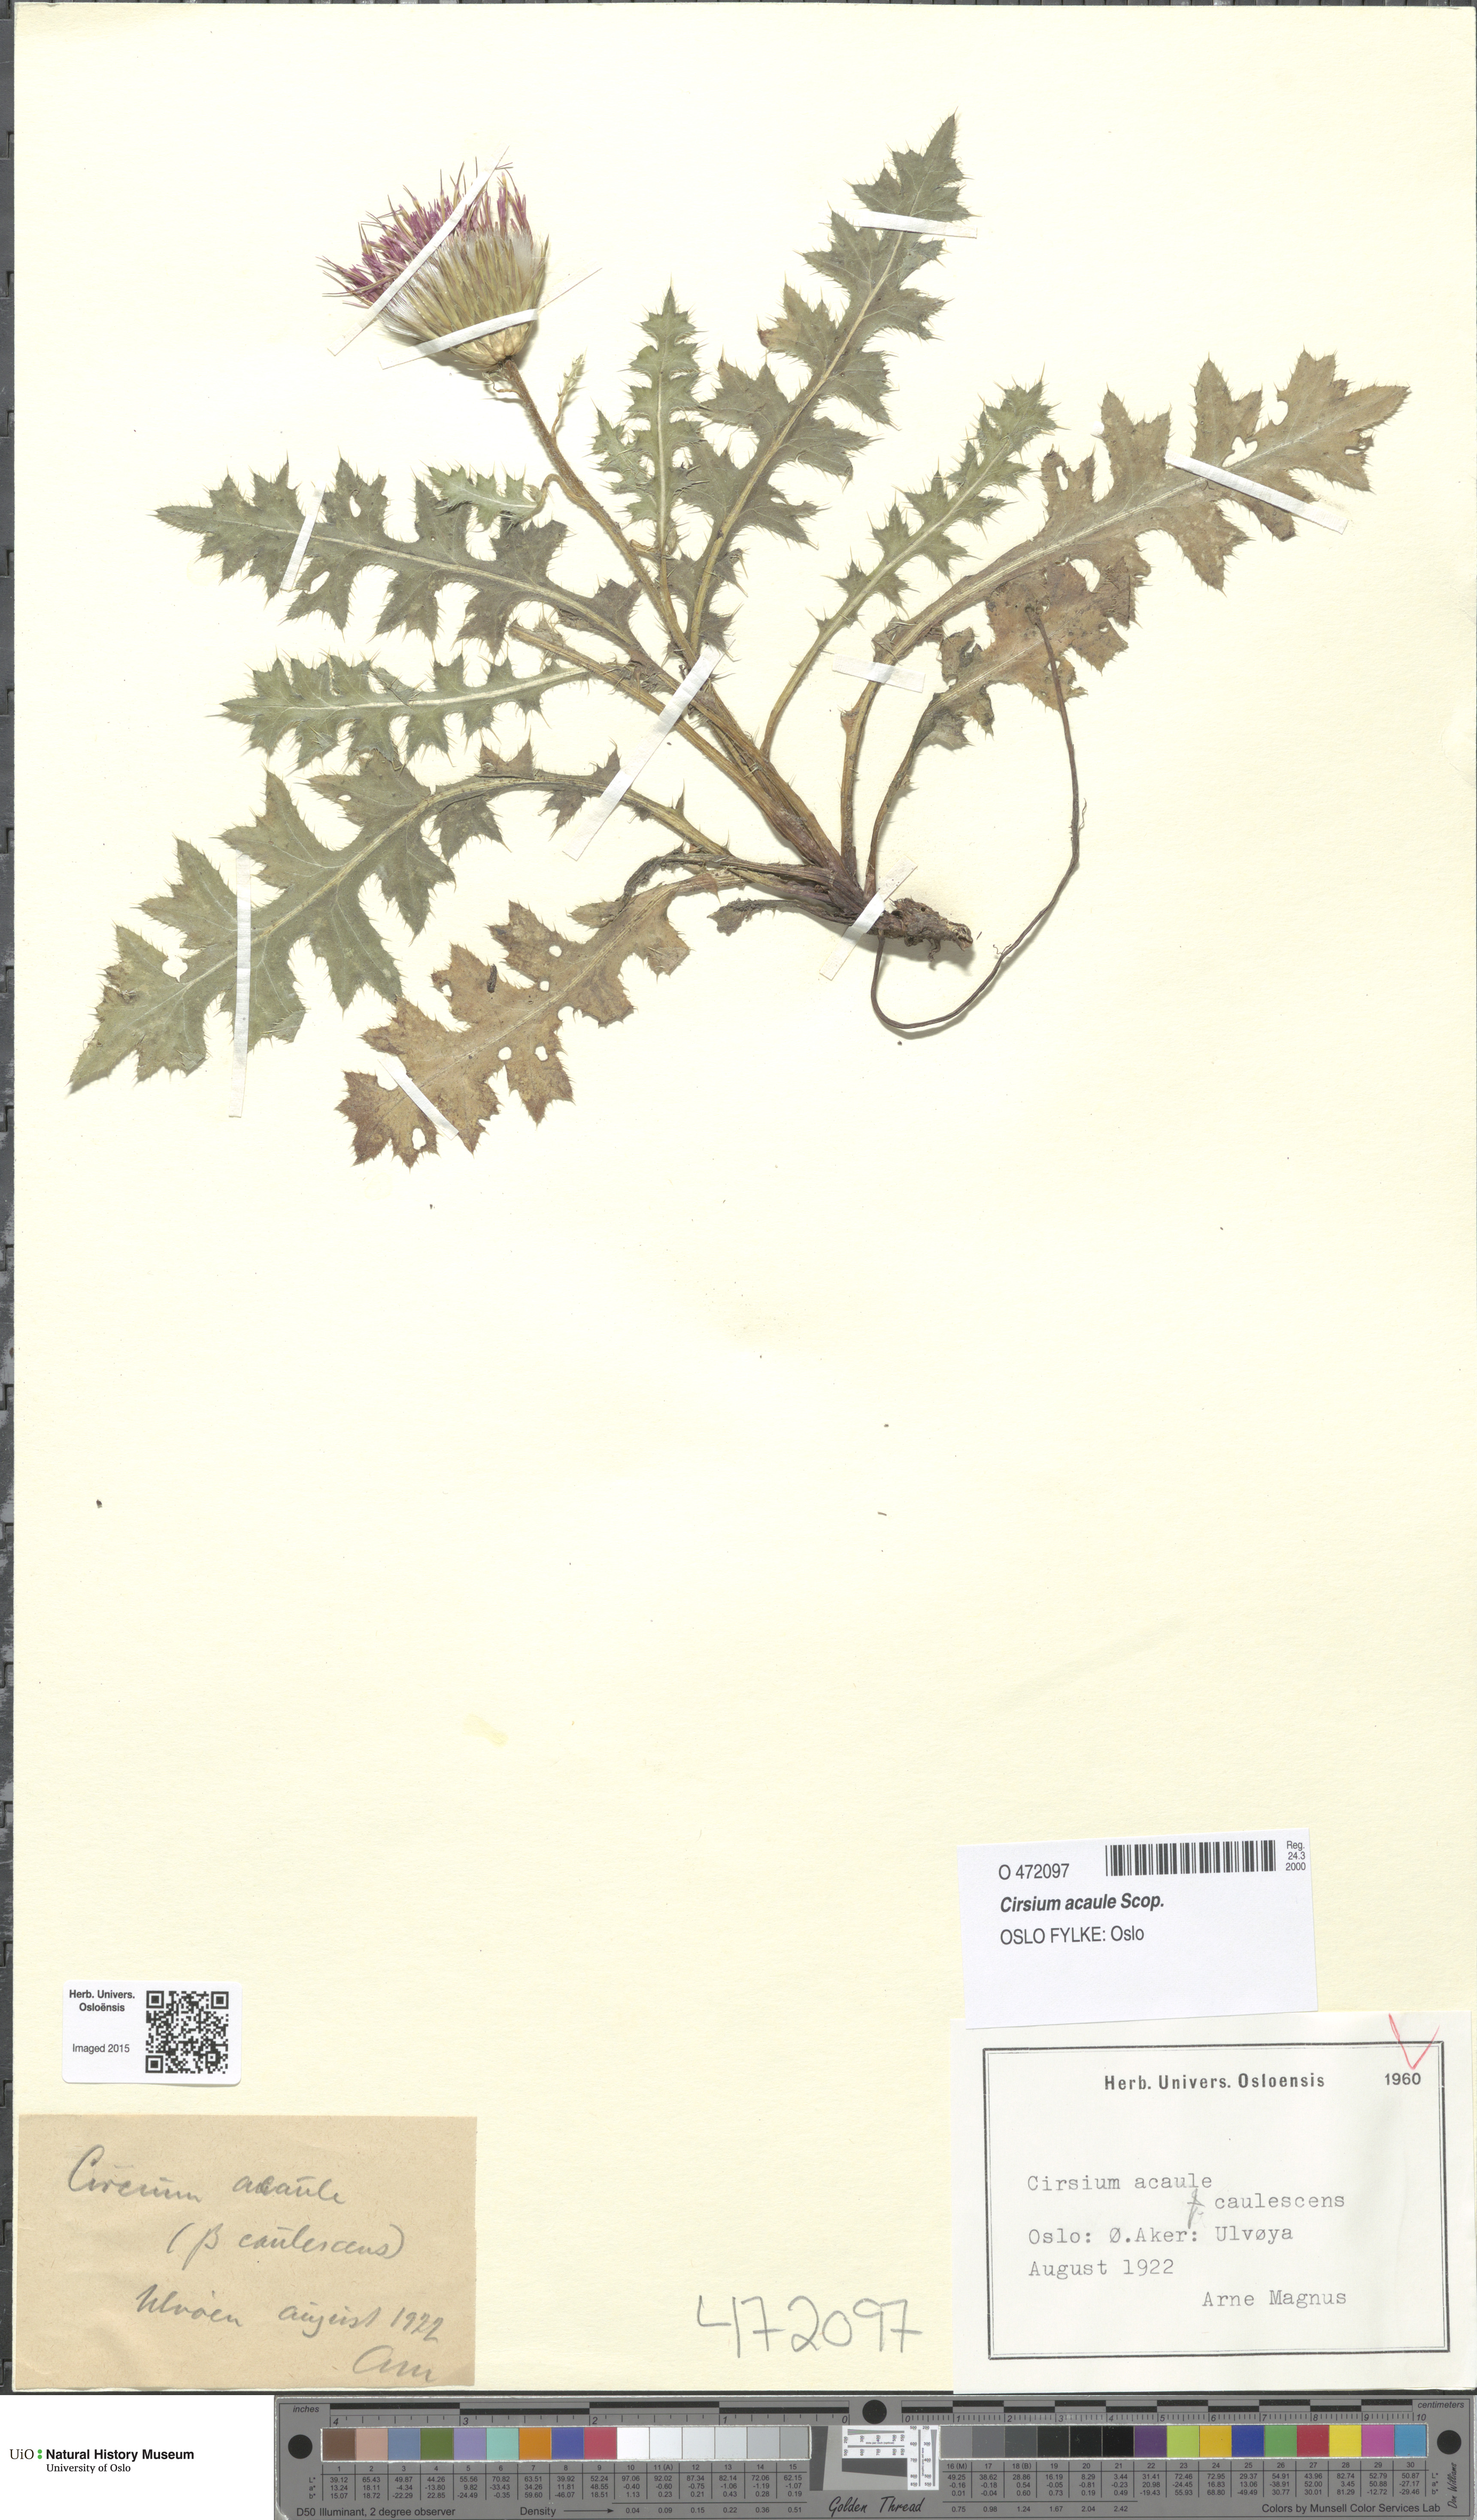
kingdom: Plantae
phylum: Tracheophyta
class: Magnoliopsida
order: Asterales
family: Asteraceae
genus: Cirsium
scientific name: Cirsium acaulon
